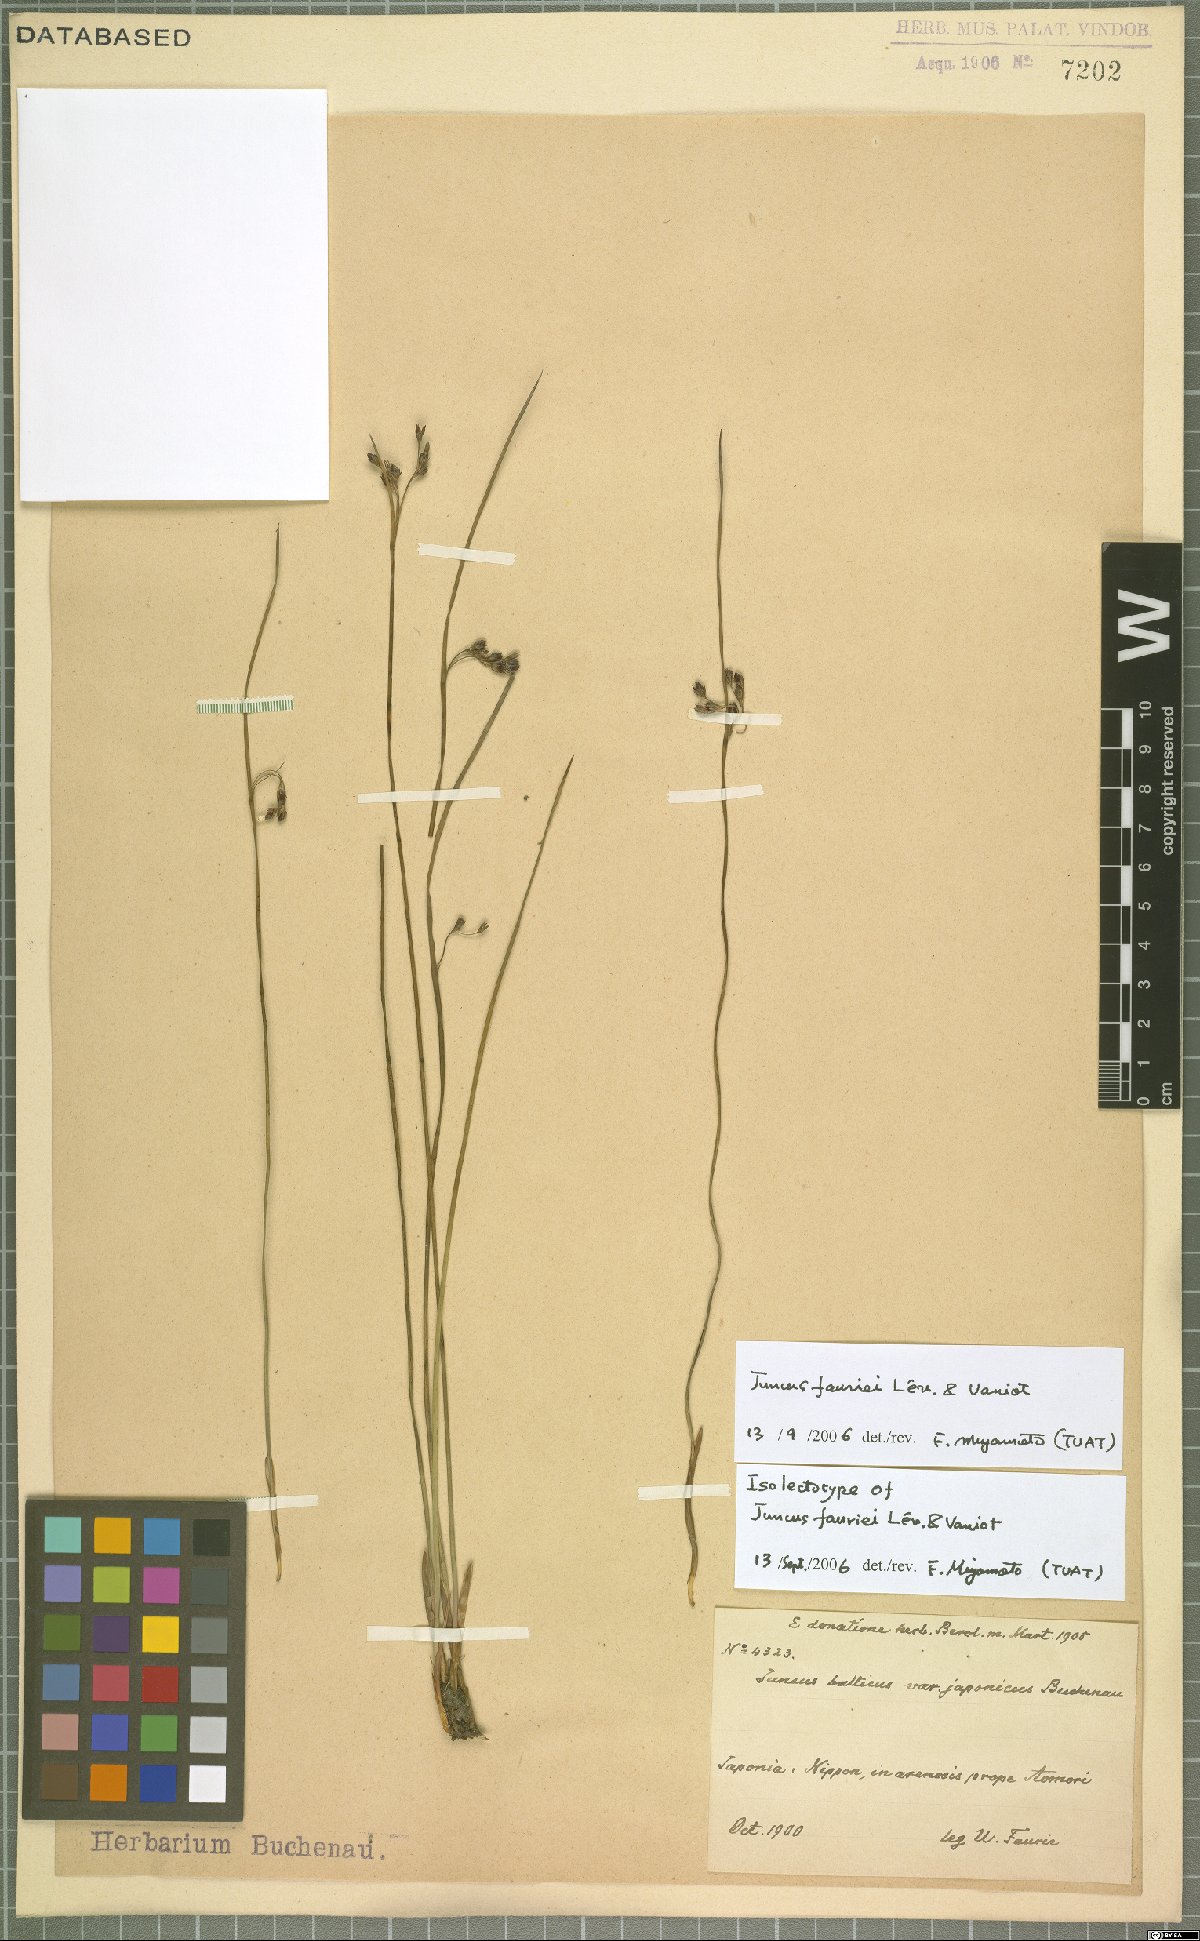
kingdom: Plantae
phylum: Tracheophyta
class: Liliopsida
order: Poales
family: Juncaceae
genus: Juncus
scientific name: Juncus fauriei
